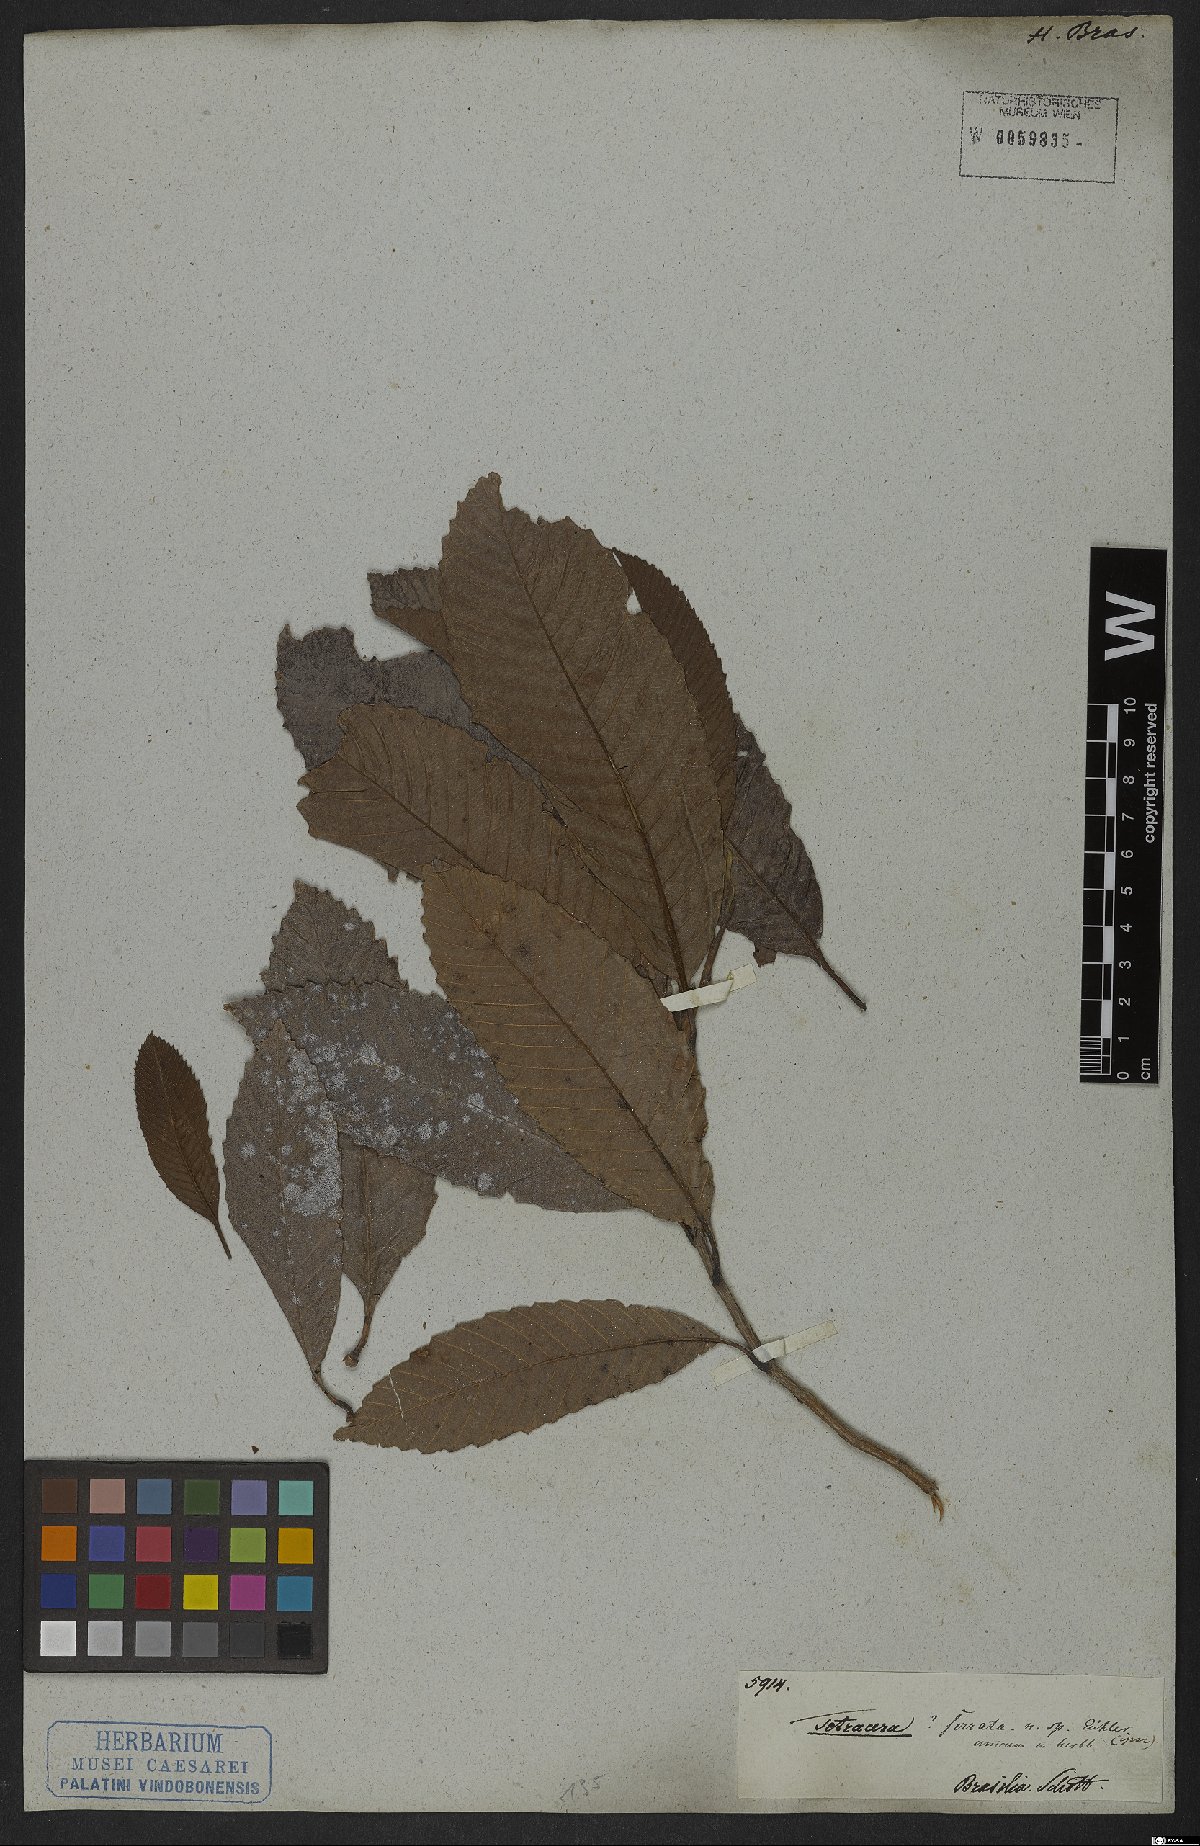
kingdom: Plantae
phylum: Tracheophyta
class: Magnoliopsida
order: Dilleniales
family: Dilleniaceae
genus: Tetracera
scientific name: Tetracera
